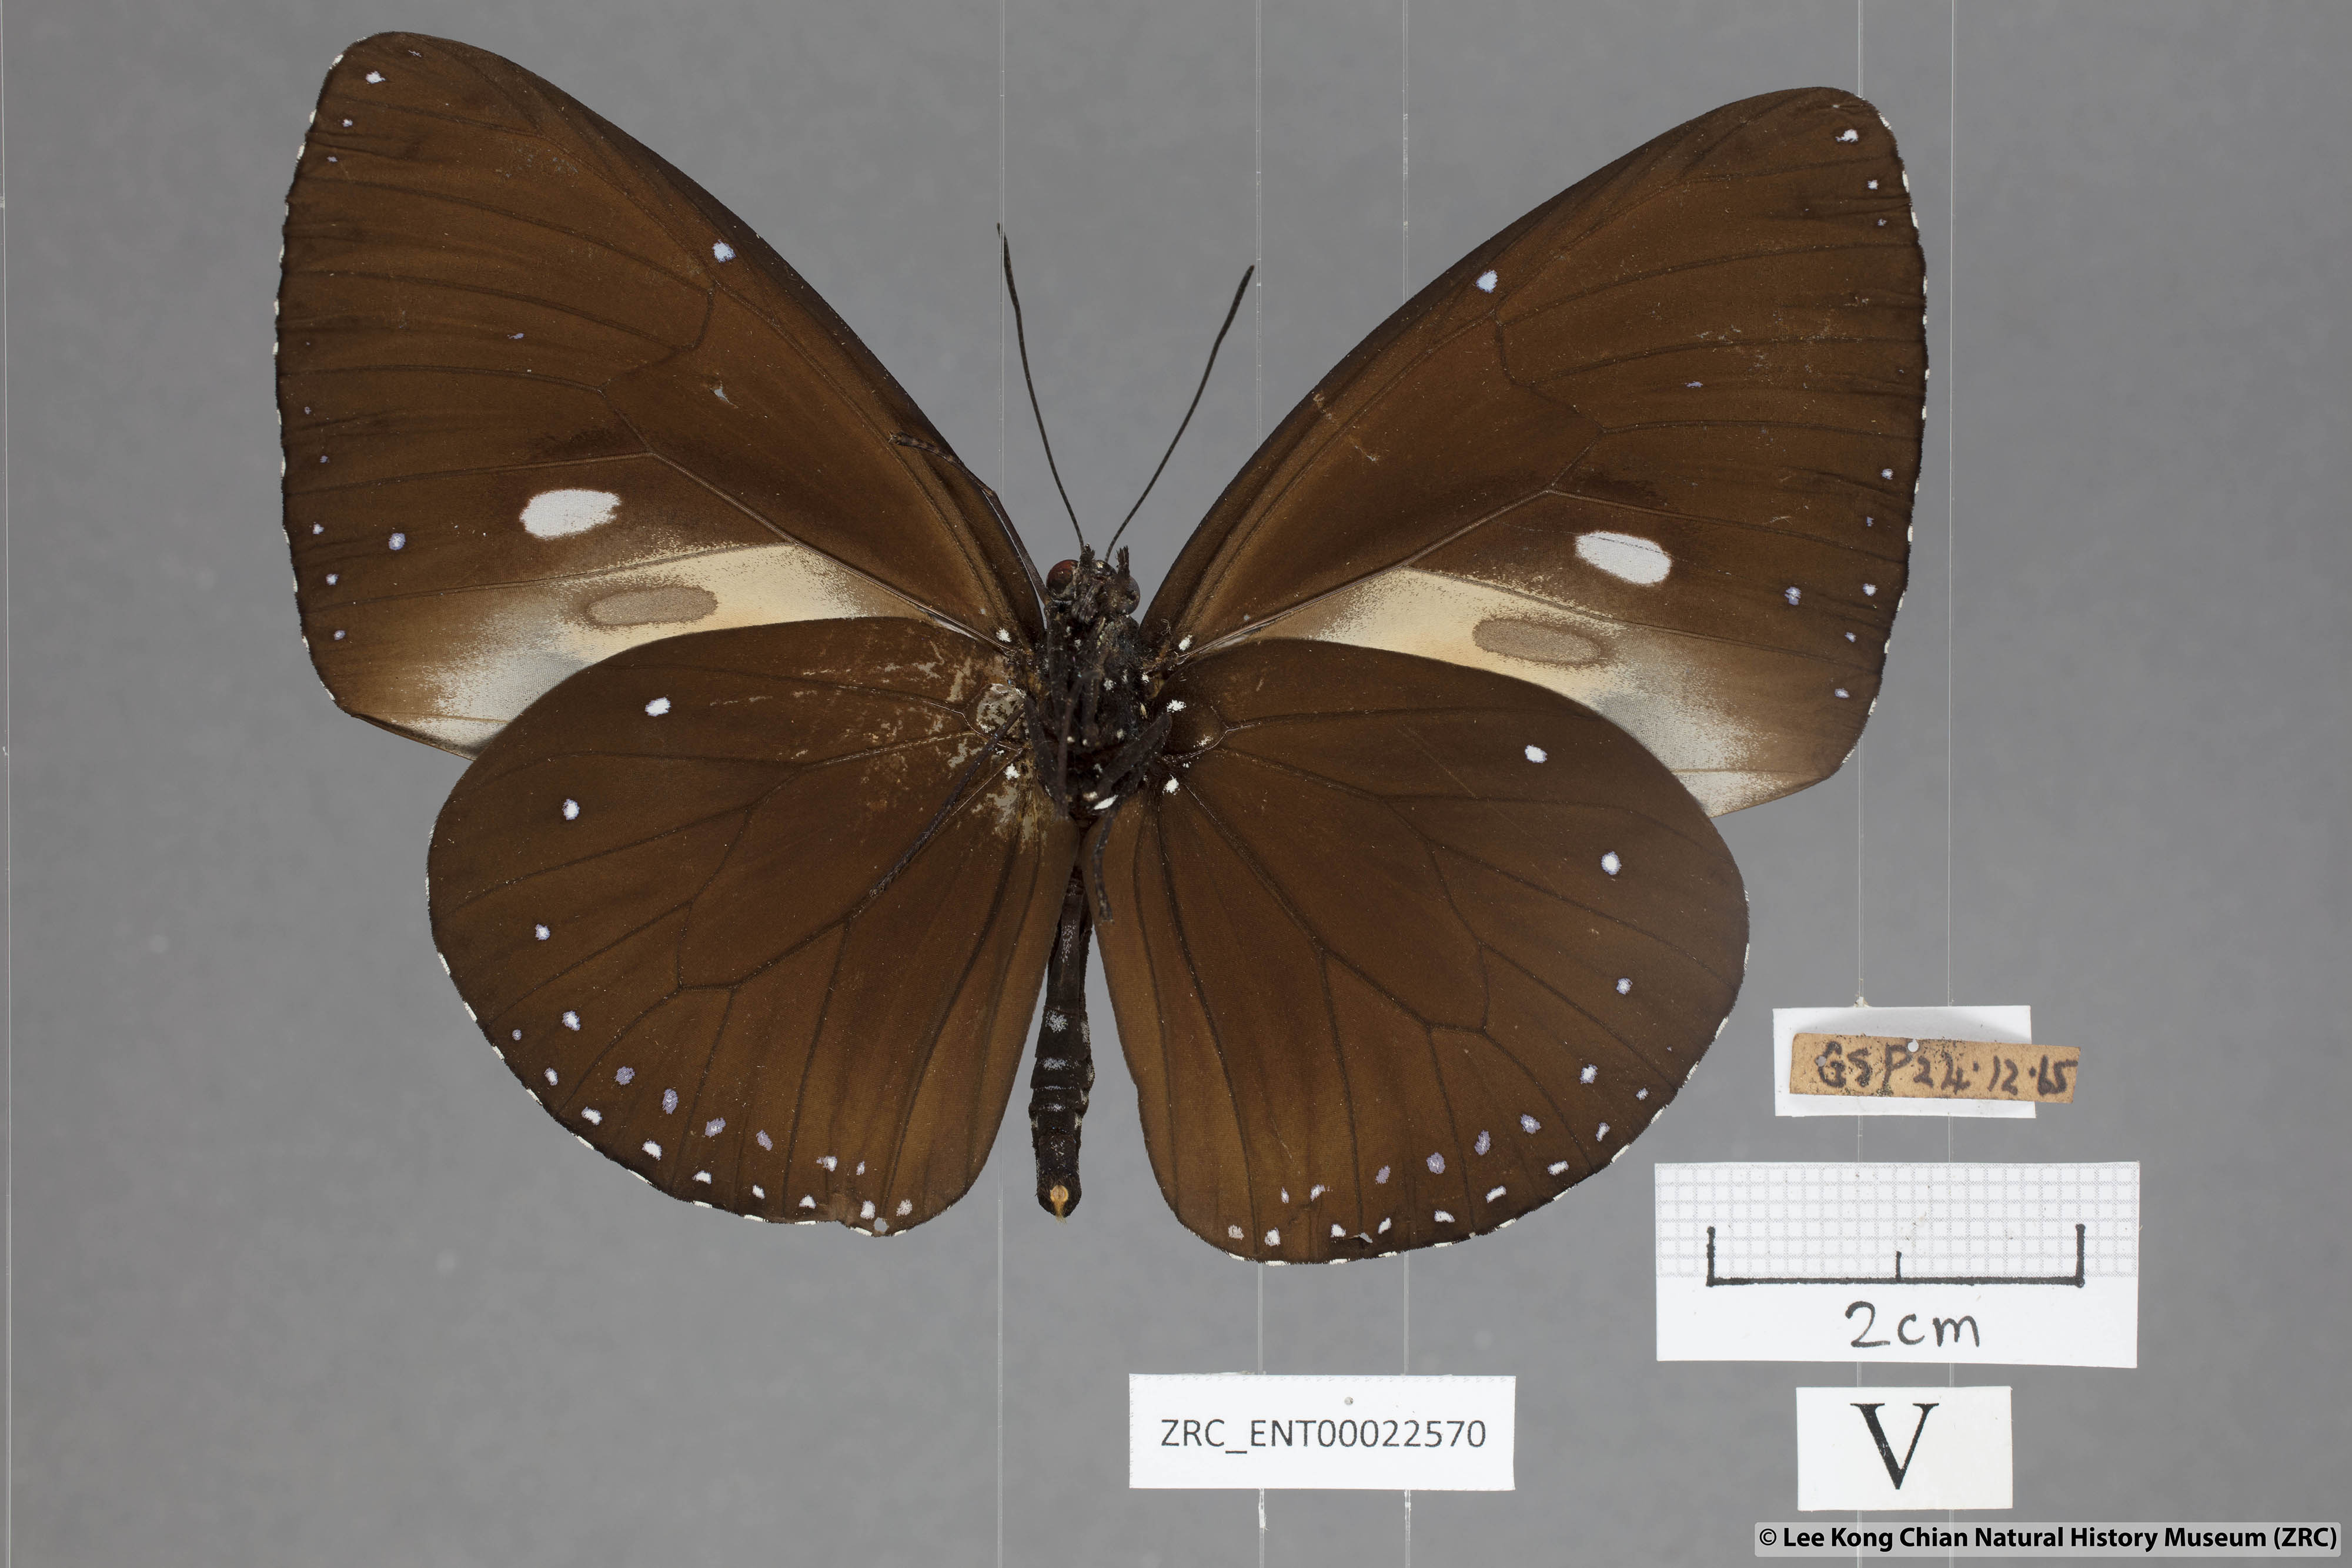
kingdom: Animalia
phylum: Arthropoda
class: Insecta
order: Lepidoptera
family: Nymphalidae
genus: Euploea
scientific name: Euploea eunice
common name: Blue-banded king crow butterfly
